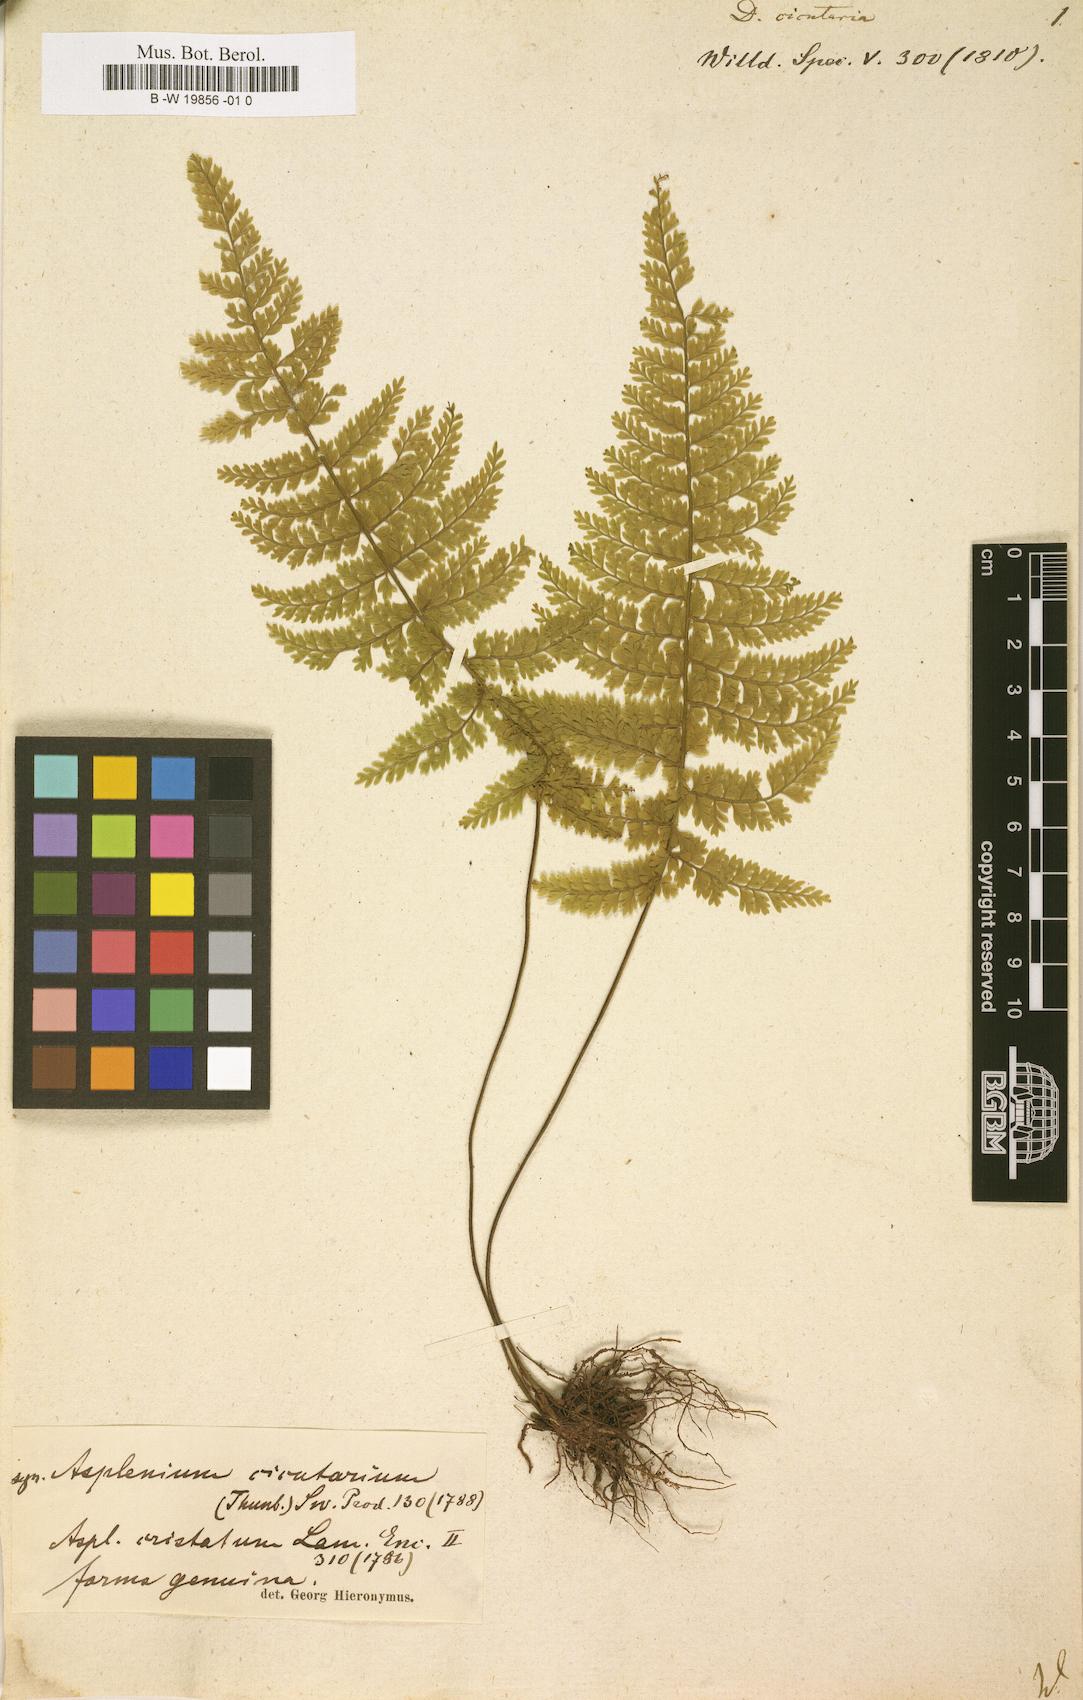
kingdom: Plantae
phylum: Tracheophyta
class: Polypodiopsida
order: Polypodiales
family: Aspleniaceae
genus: Asplenium
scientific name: Asplenium cristatum
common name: Parsley spleenwort
